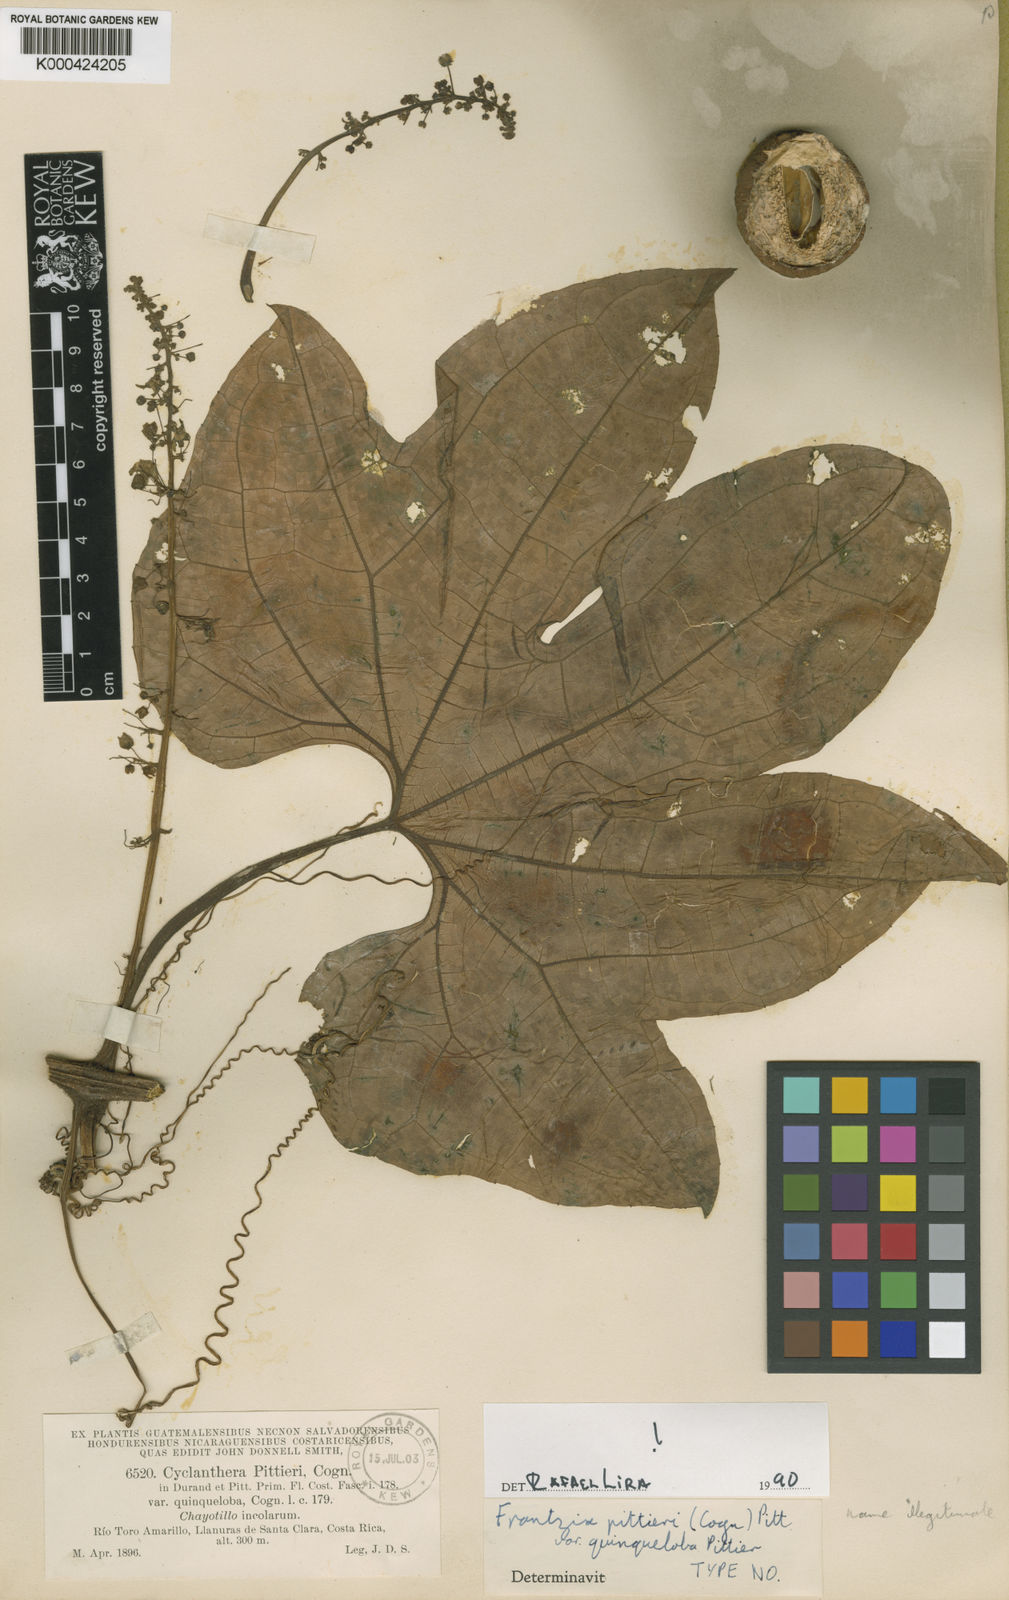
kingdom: Plantae
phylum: Tracheophyta
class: Magnoliopsida
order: Cucurbitales
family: Cucurbitaceae
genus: Frantzia
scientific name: Frantzia pittieri
